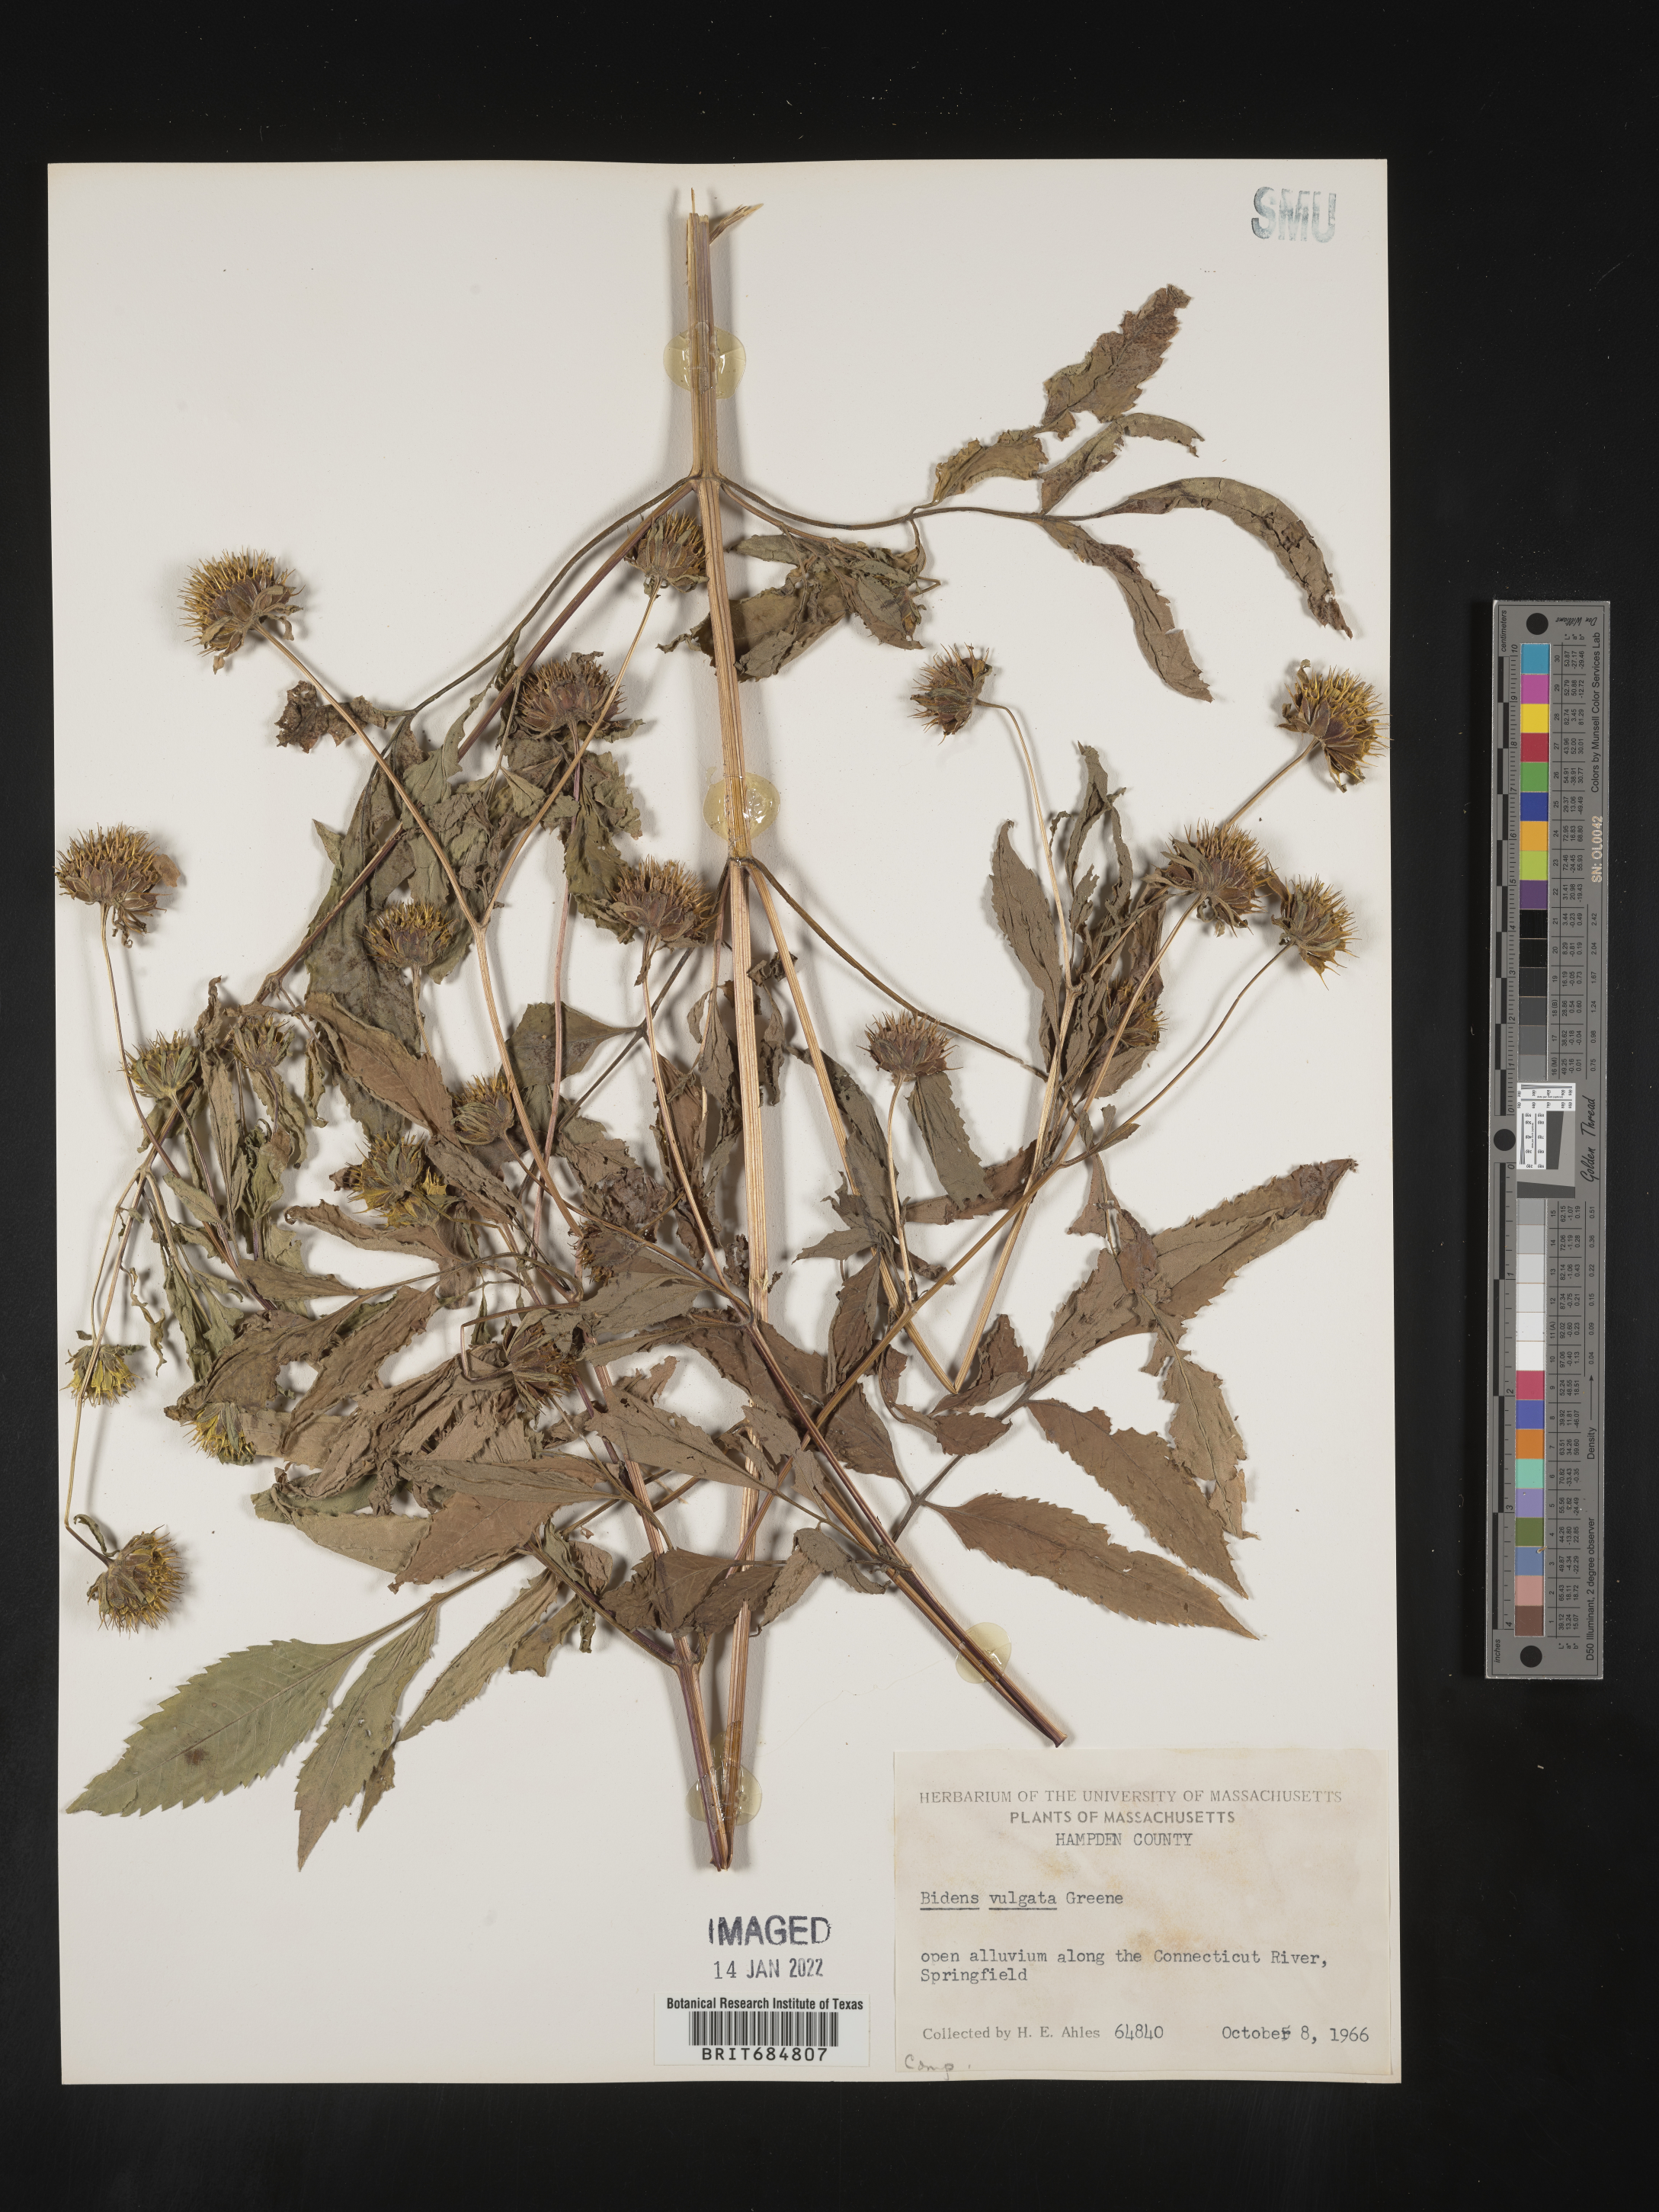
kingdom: Plantae
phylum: Tracheophyta
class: Magnoliopsida
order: Asterales
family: Asteraceae
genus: Bidens
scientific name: Bidens vulgata
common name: Tall beggarticks
